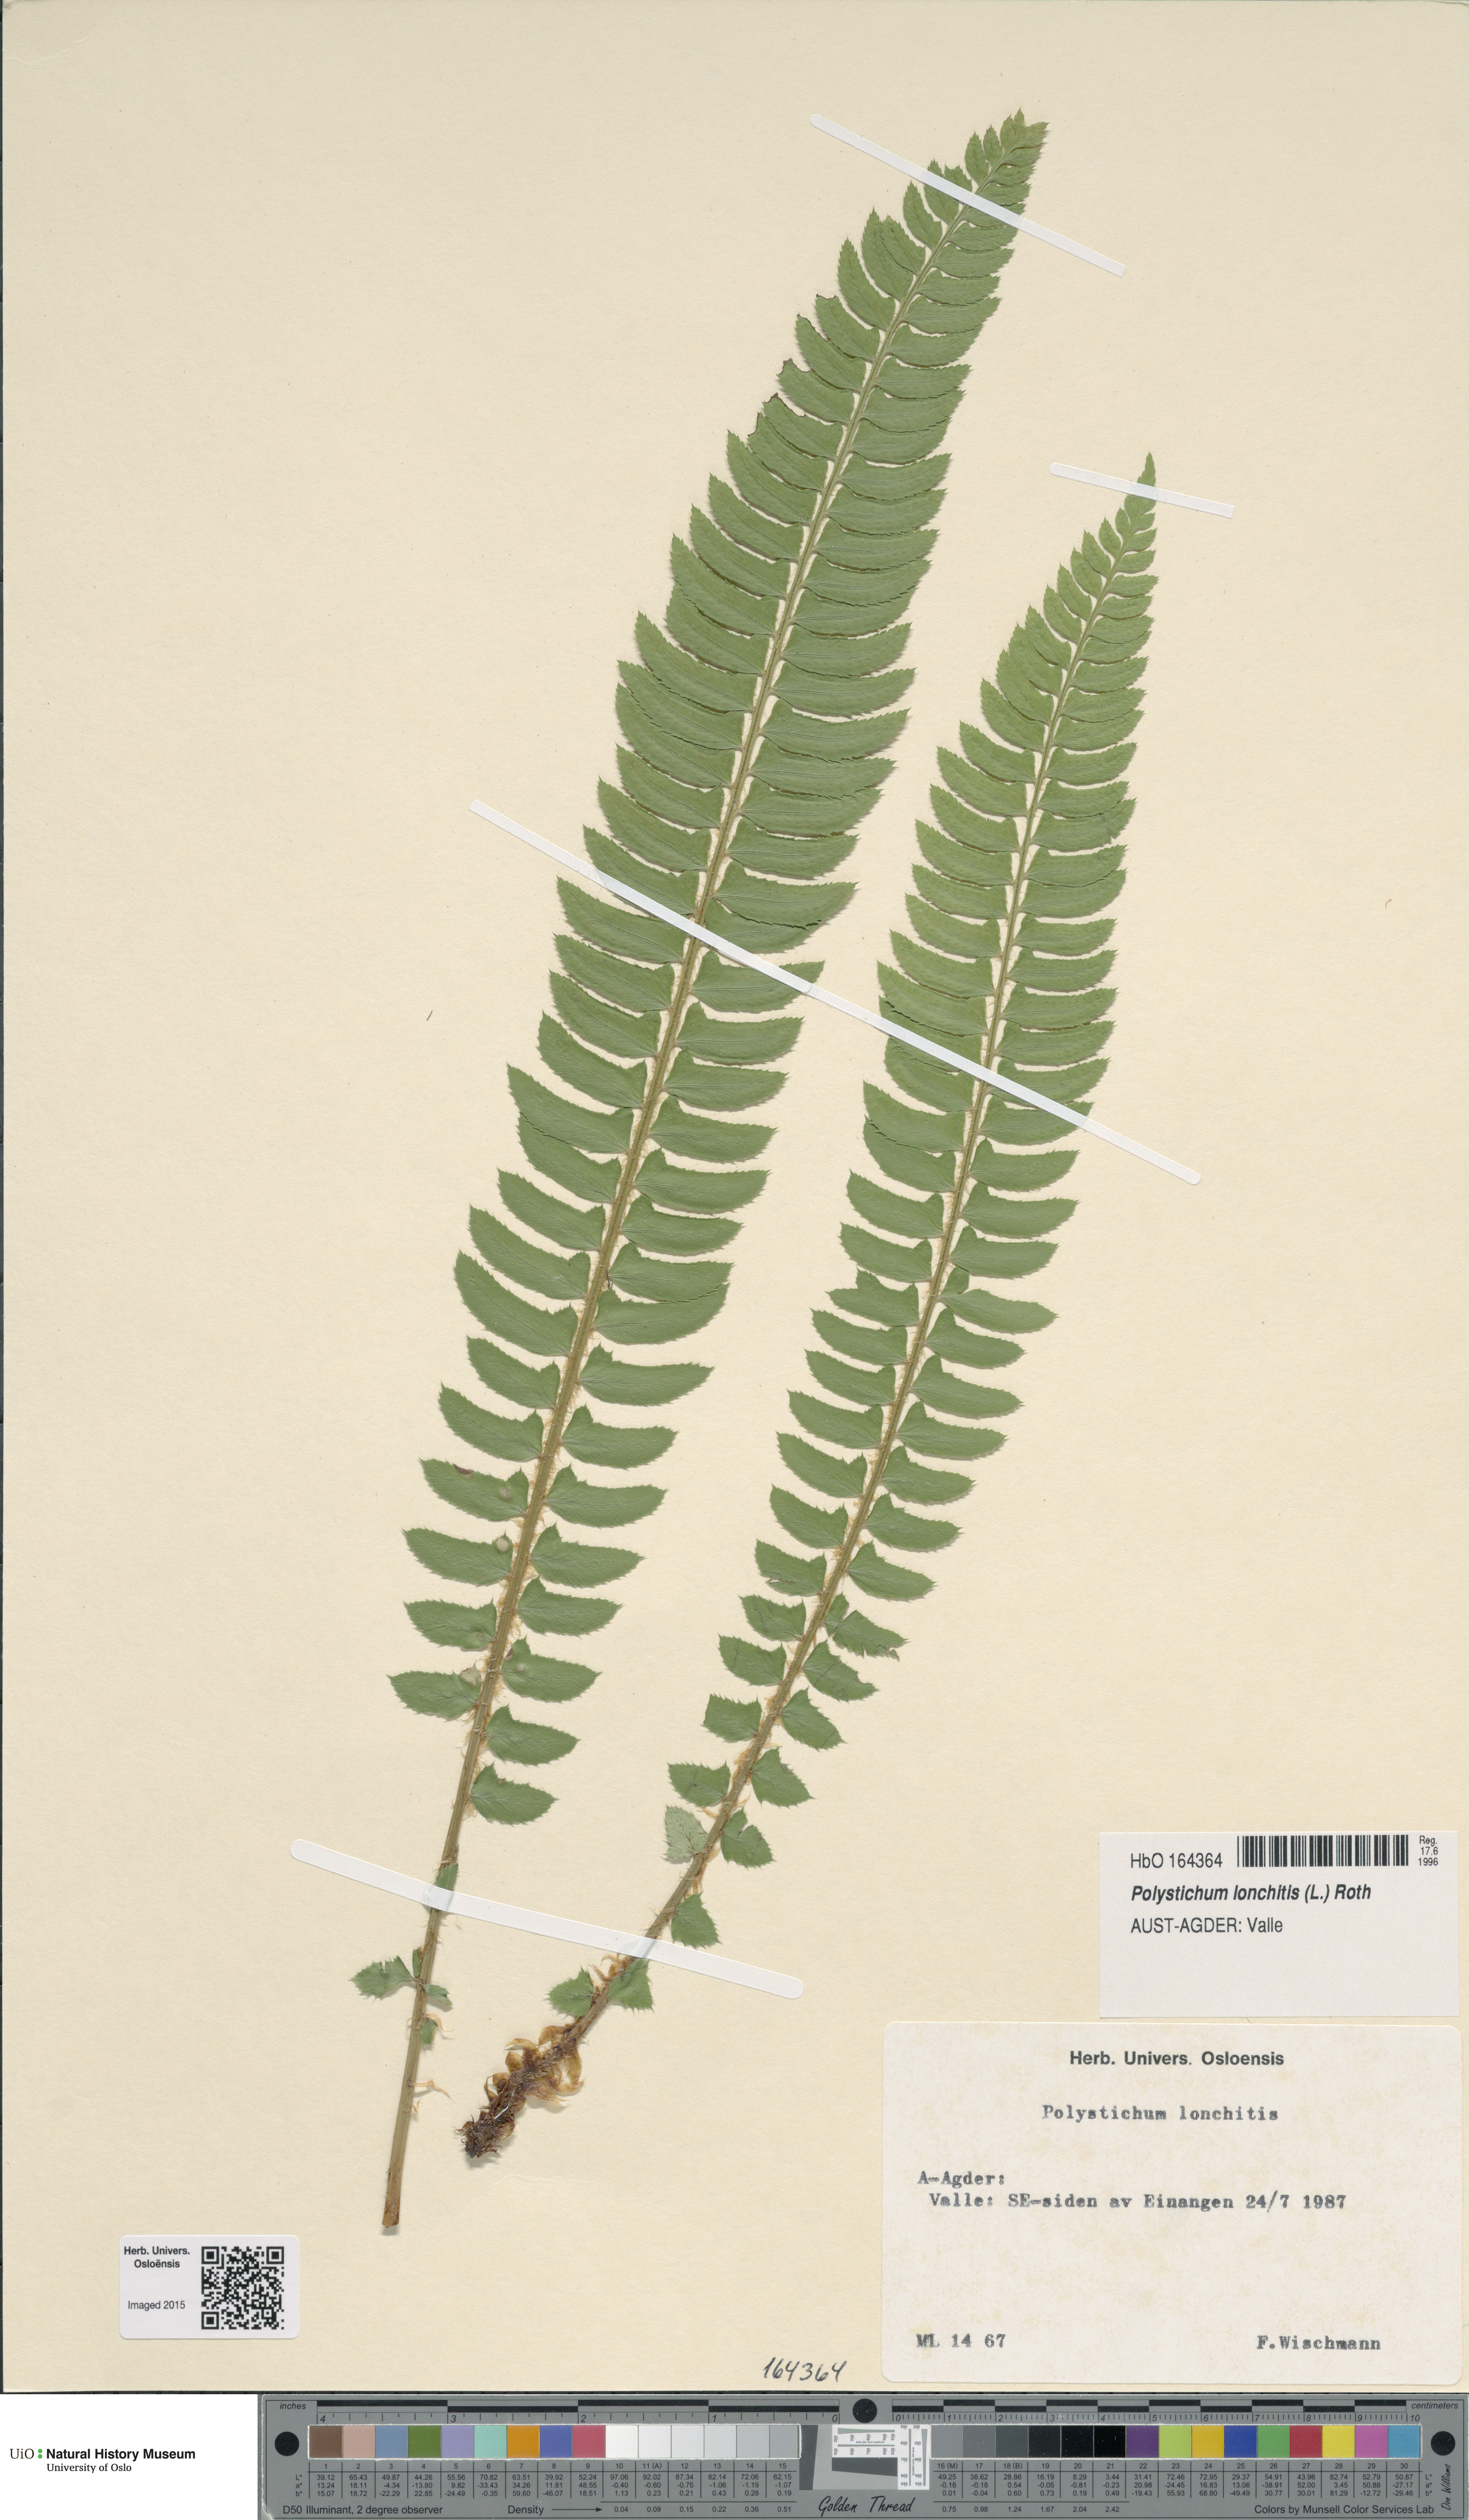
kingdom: Plantae
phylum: Tracheophyta
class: Polypodiopsida
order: Polypodiales
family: Dryopteridaceae
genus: Polystichum
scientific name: Polystichum lonchitis
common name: Holly fern
